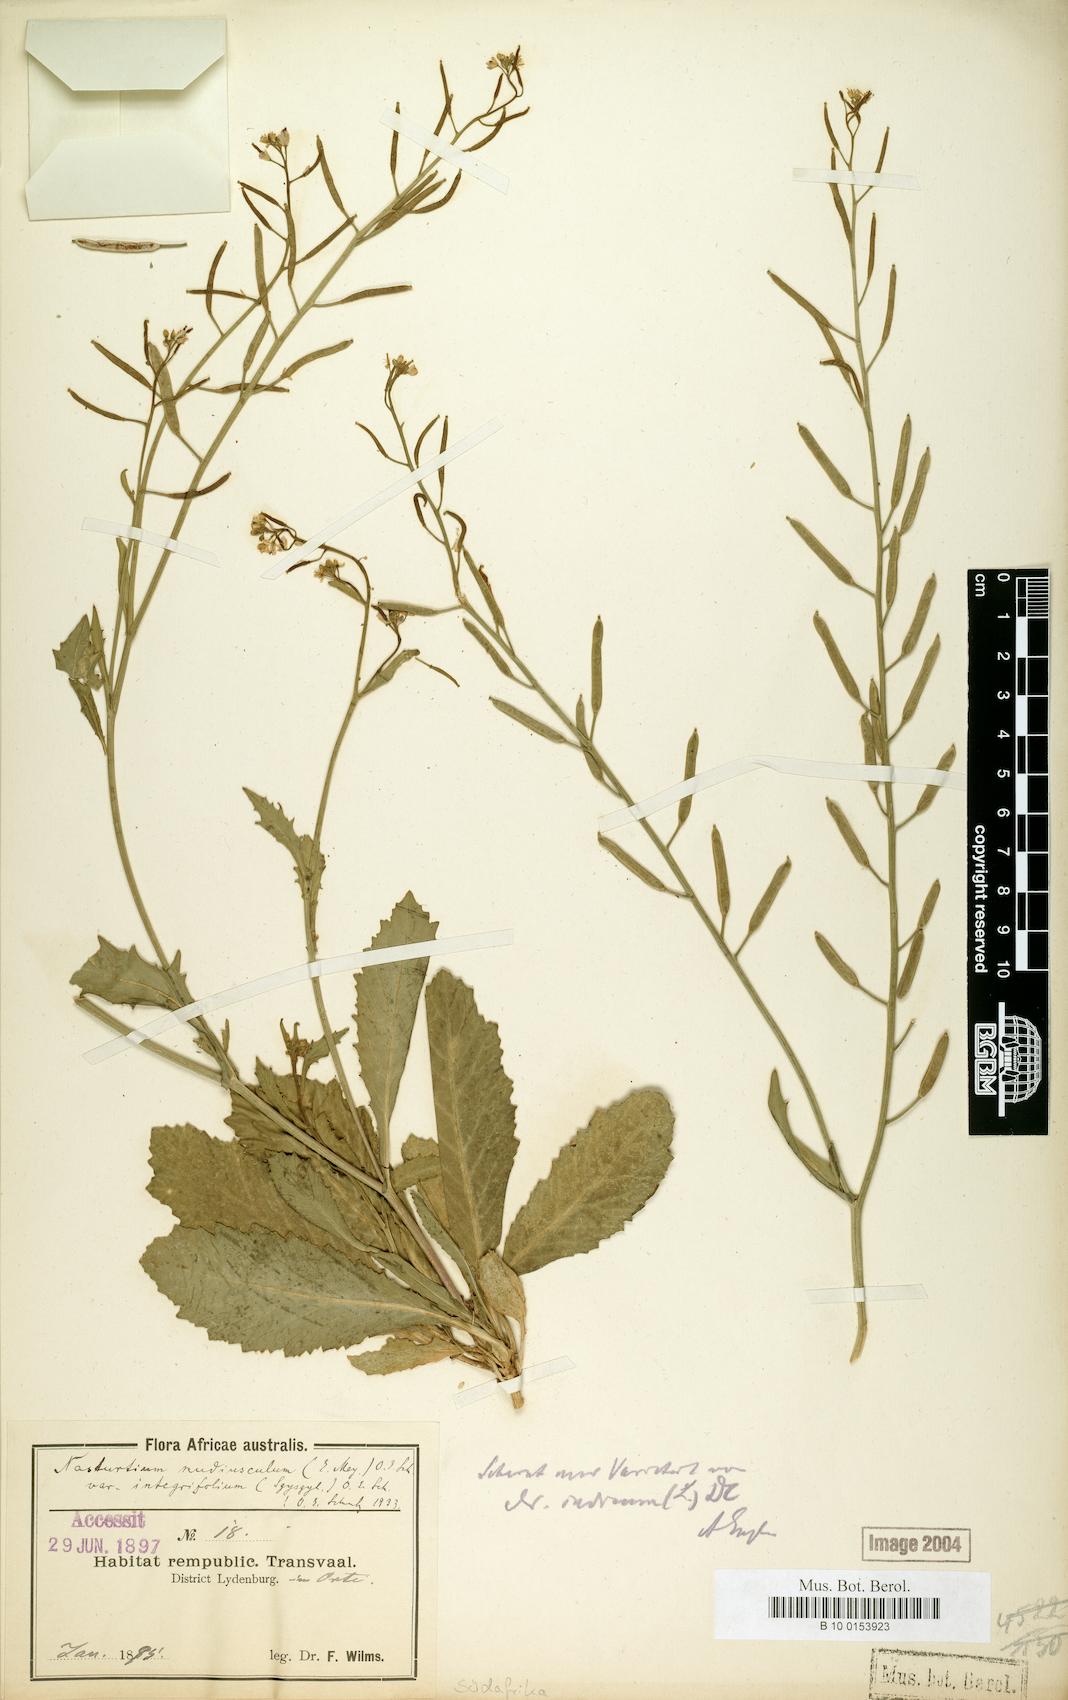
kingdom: Plantae
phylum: Tracheophyta
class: Magnoliopsida
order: Brassicales
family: Brassicaceae
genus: Rorippa
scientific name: Rorippa nudiuscula
